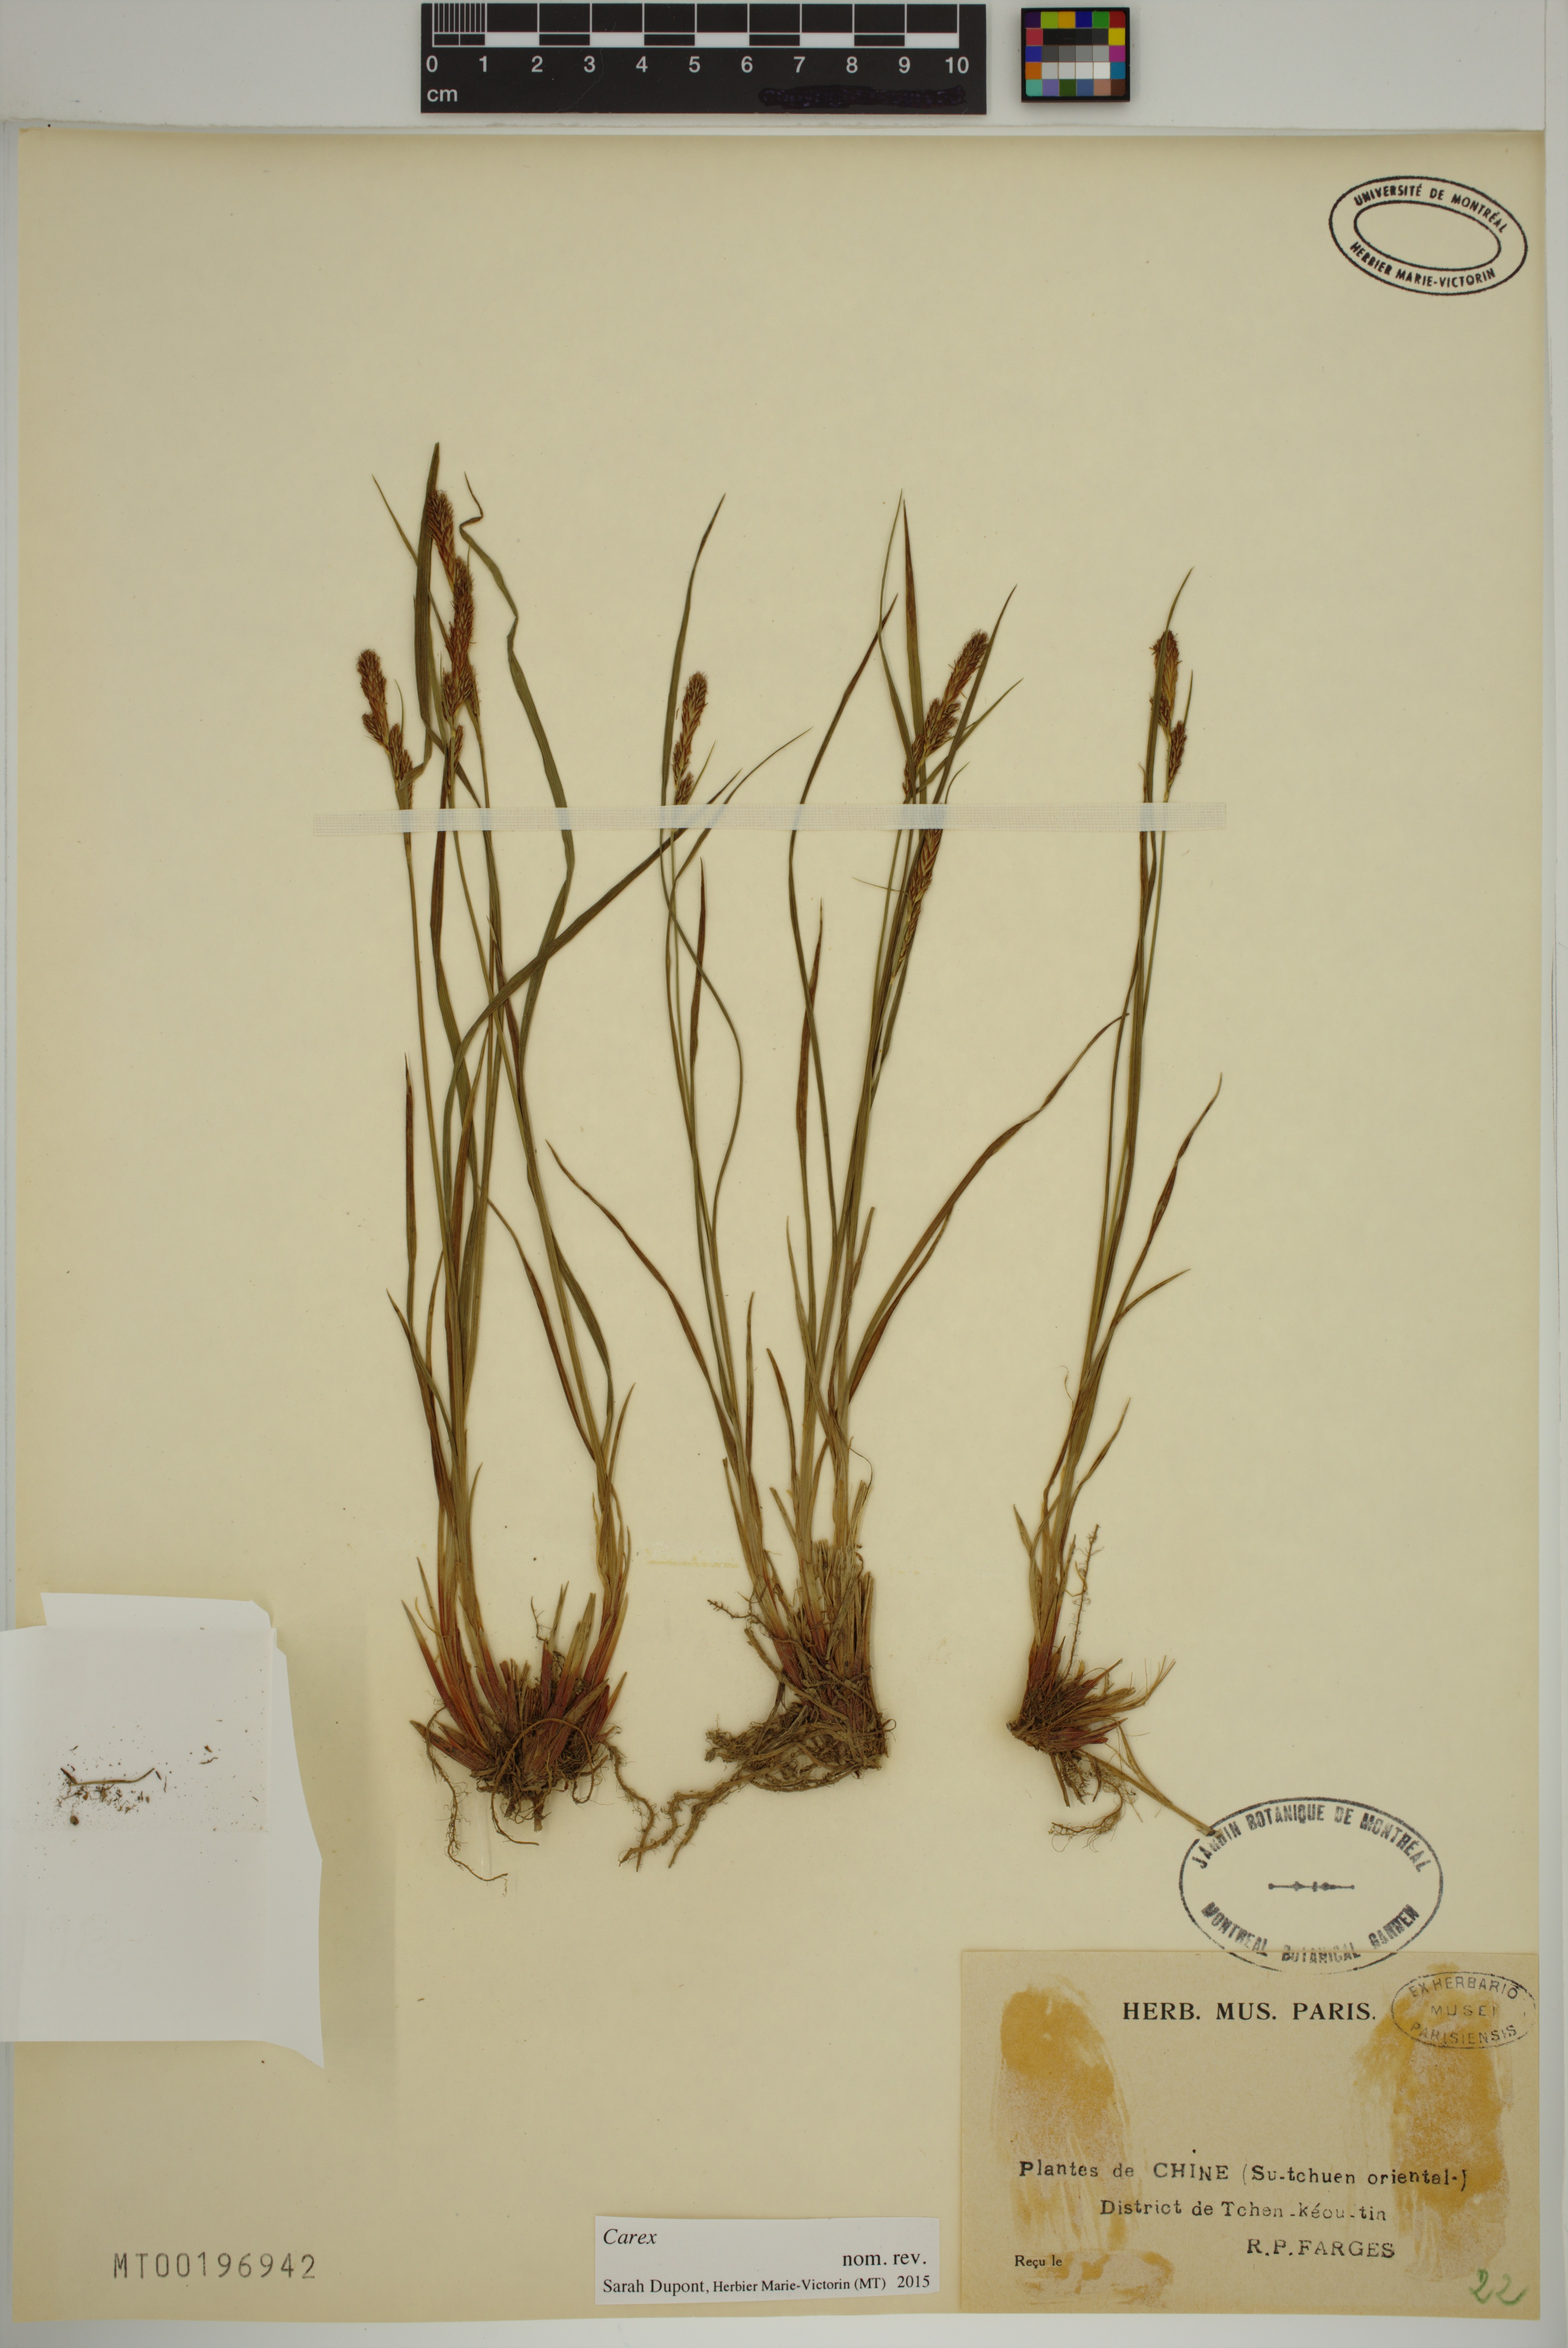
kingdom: Plantae
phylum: Tracheophyta
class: Liliopsida
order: Poales
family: Cyperaceae
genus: Carex
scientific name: Carex
